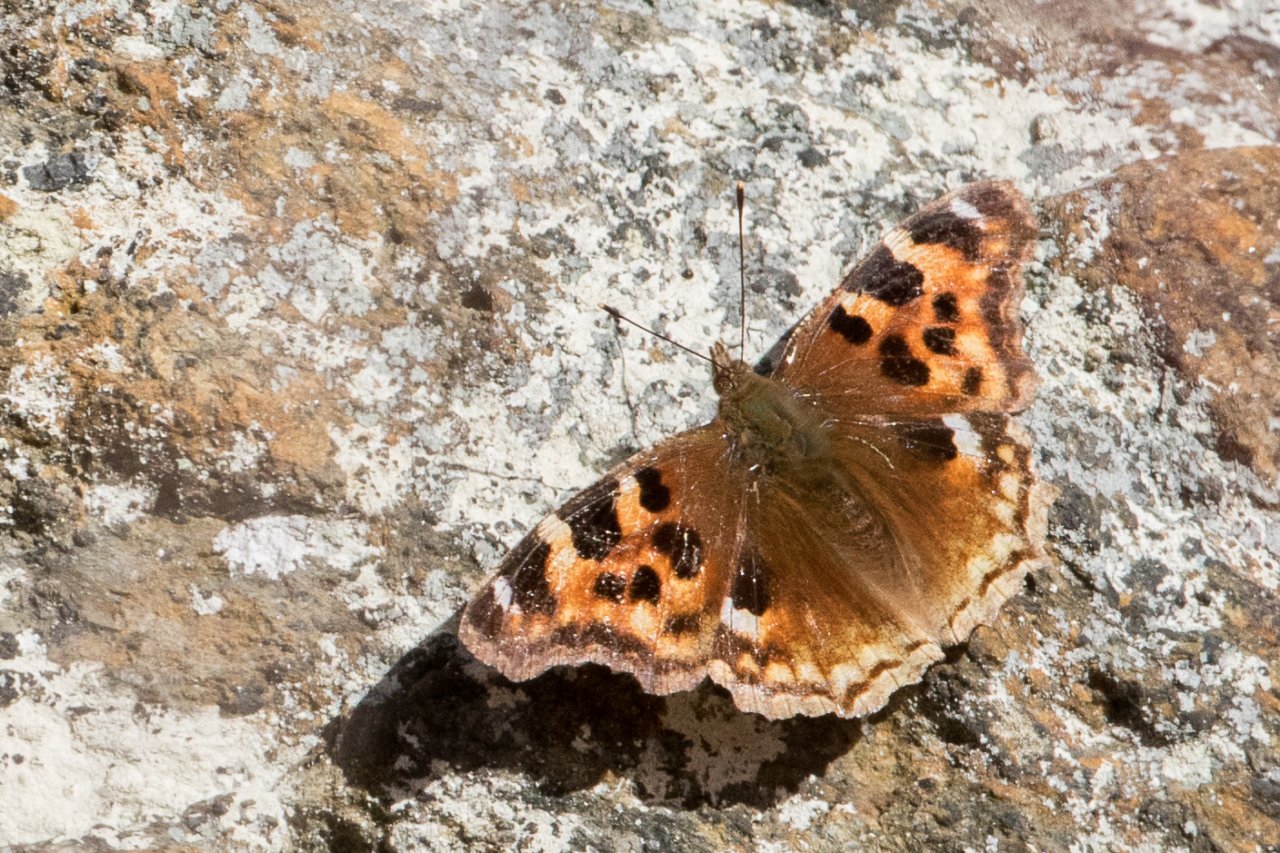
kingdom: Animalia
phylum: Arthropoda
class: Insecta
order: Lepidoptera
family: Nymphalidae
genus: Polygonia
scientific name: Polygonia vaualbum
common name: Compton Tortoiseshell
